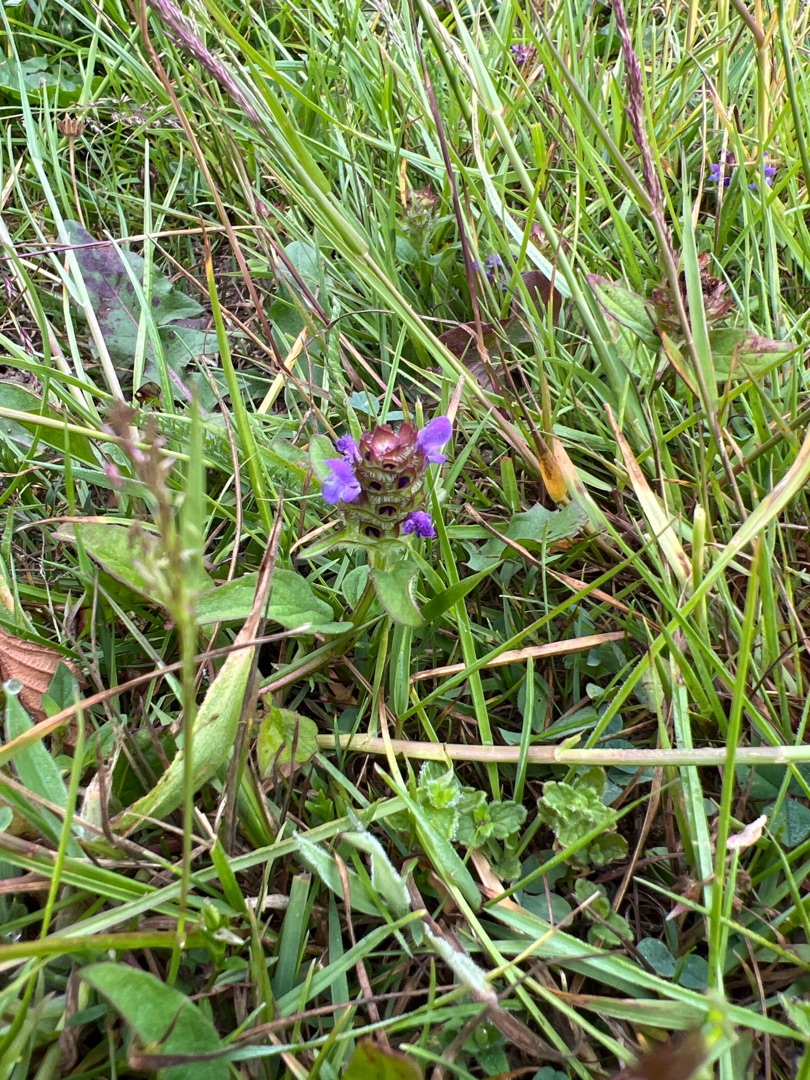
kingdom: Plantae
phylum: Tracheophyta
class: Magnoliopsida
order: Lamiales
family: Lamiaceae
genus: Prunella
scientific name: Prunella vulgaris
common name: Almindelig brunelle
